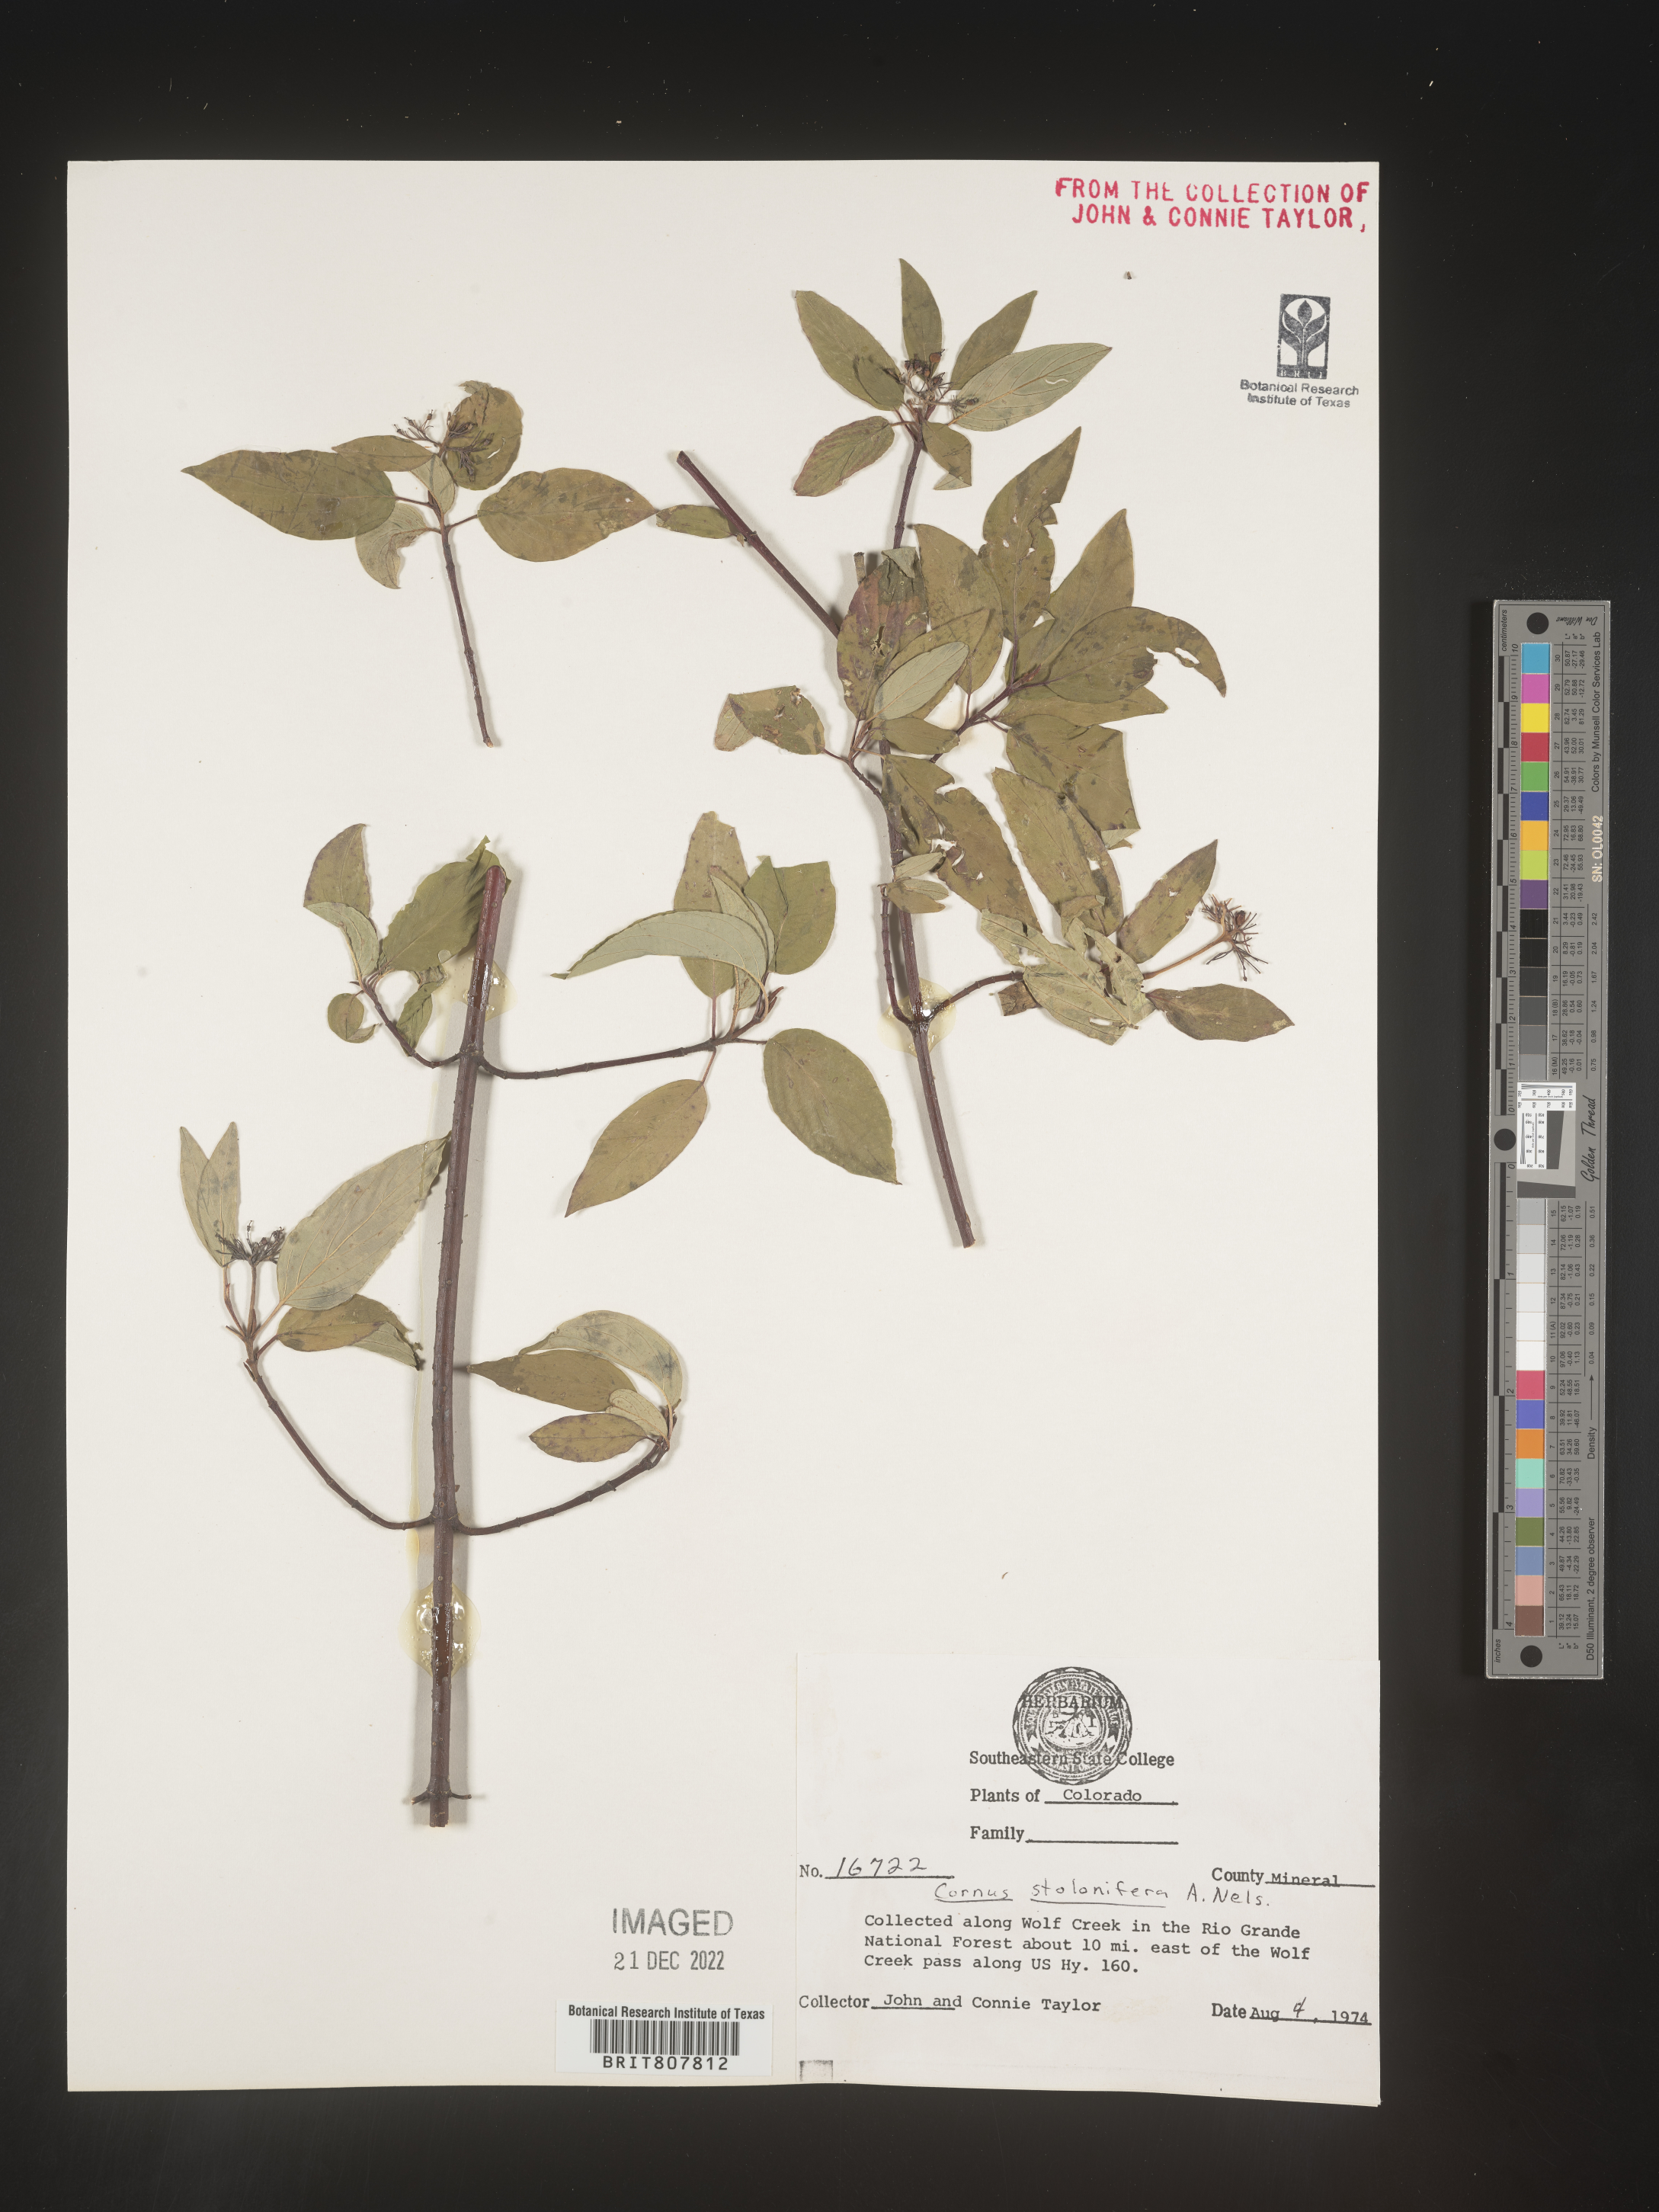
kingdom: Plantae
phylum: Tracheophyta
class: Magnoliopsida
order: Cornales
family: Cornaceae
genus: Cornus
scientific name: Cornus sericea
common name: Red-osier dogwood
